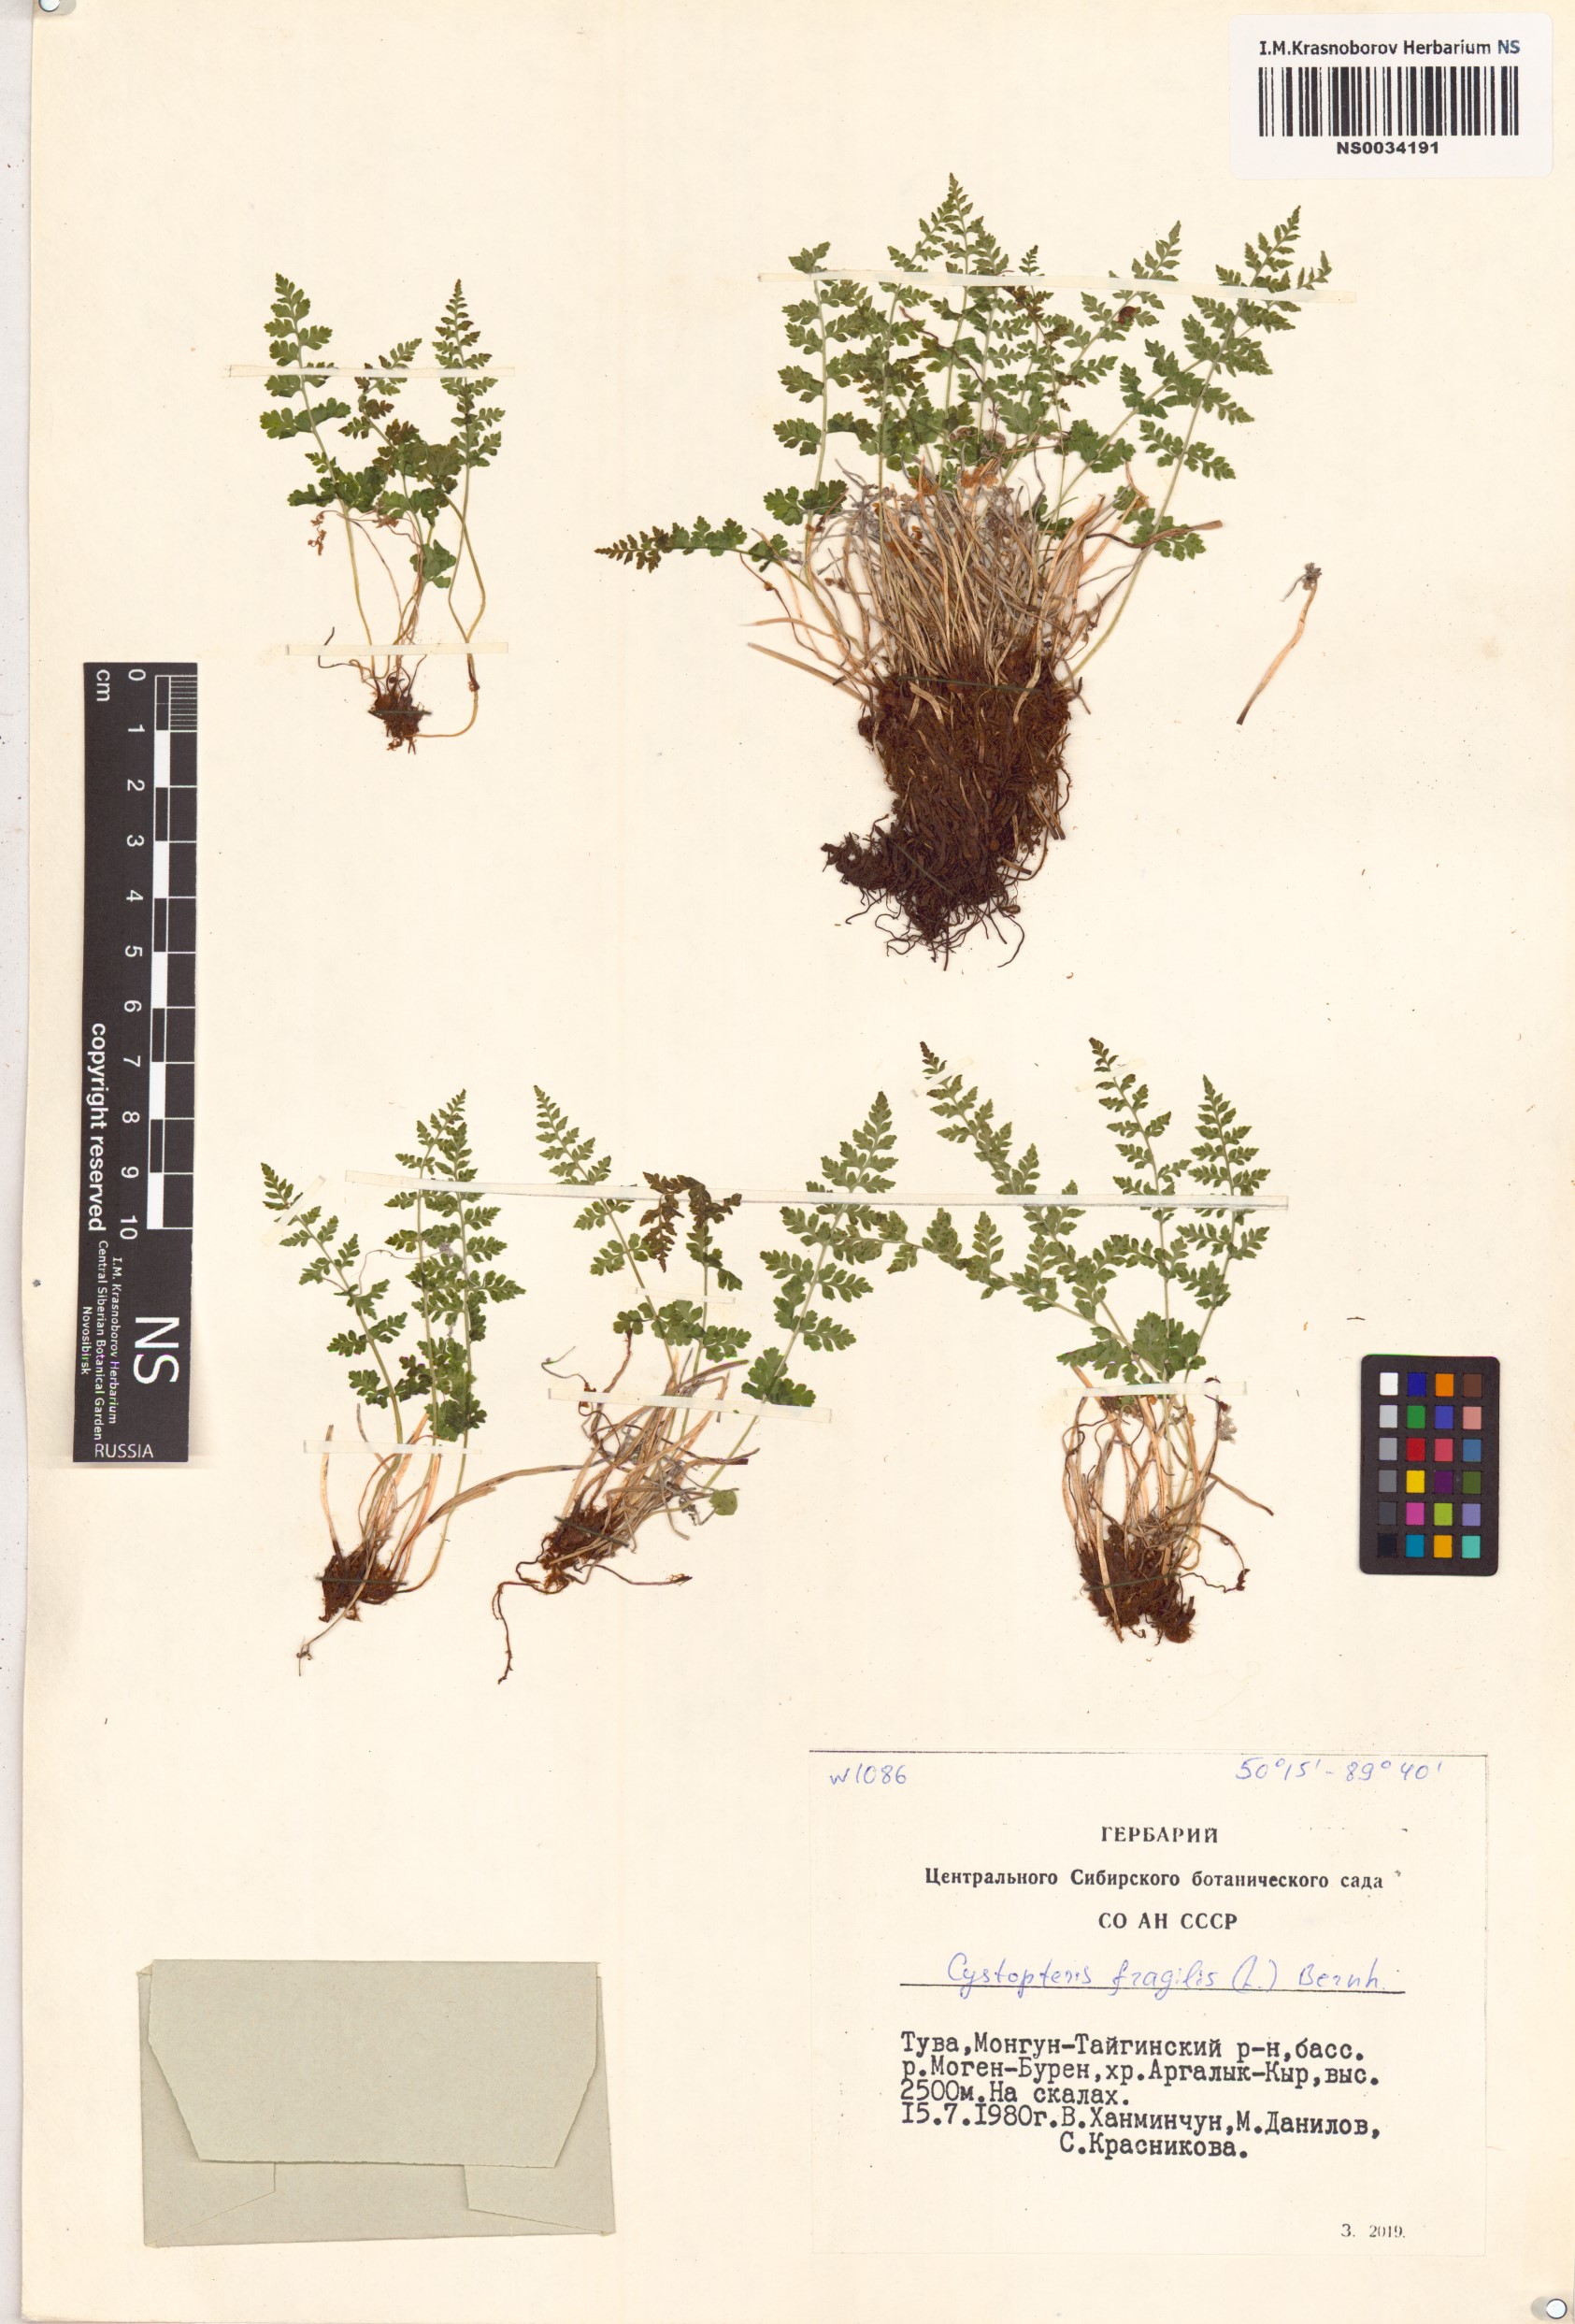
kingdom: Plantae
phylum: Tracheophyta
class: Polypodiopsida
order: Polypodiales
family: Cystopteridaceae
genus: Cystopteris
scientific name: Cystopteris fragilis
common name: Brittle bladder fern
